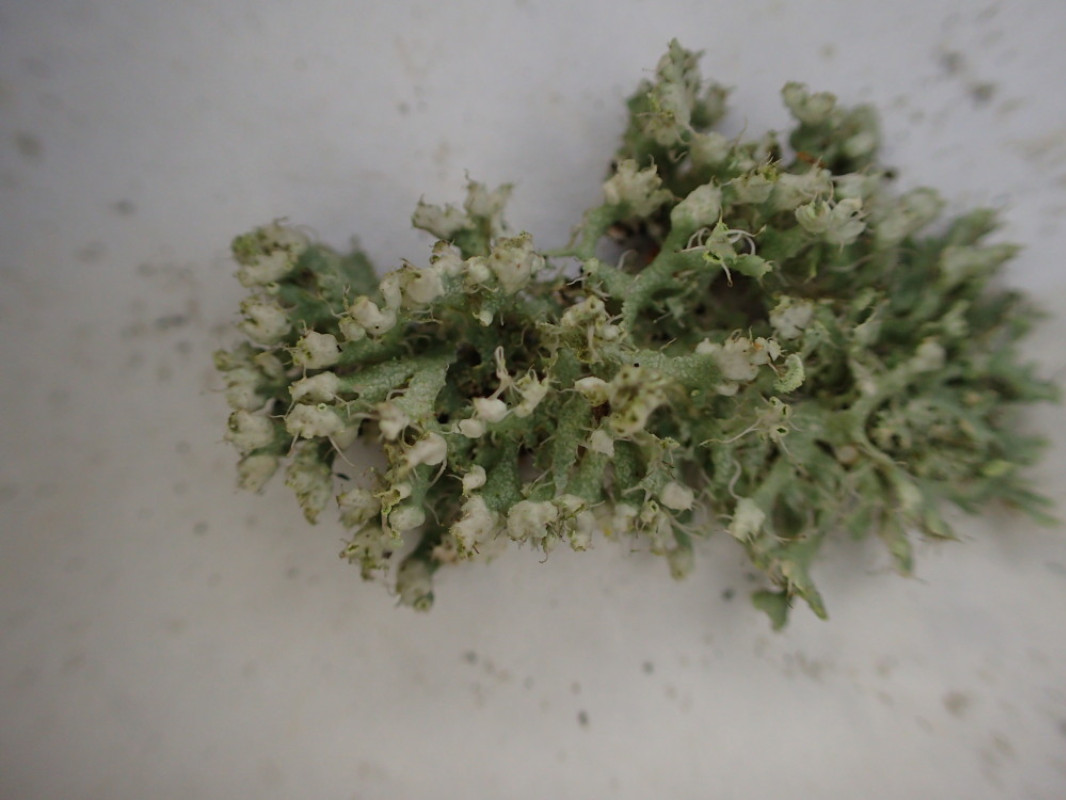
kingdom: Fungi
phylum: Ascomycota
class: Lecanoromycetes
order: Caliciales
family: Physciaceae
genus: Physcia
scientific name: Physcia adscendens
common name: hætte-rosetlav
